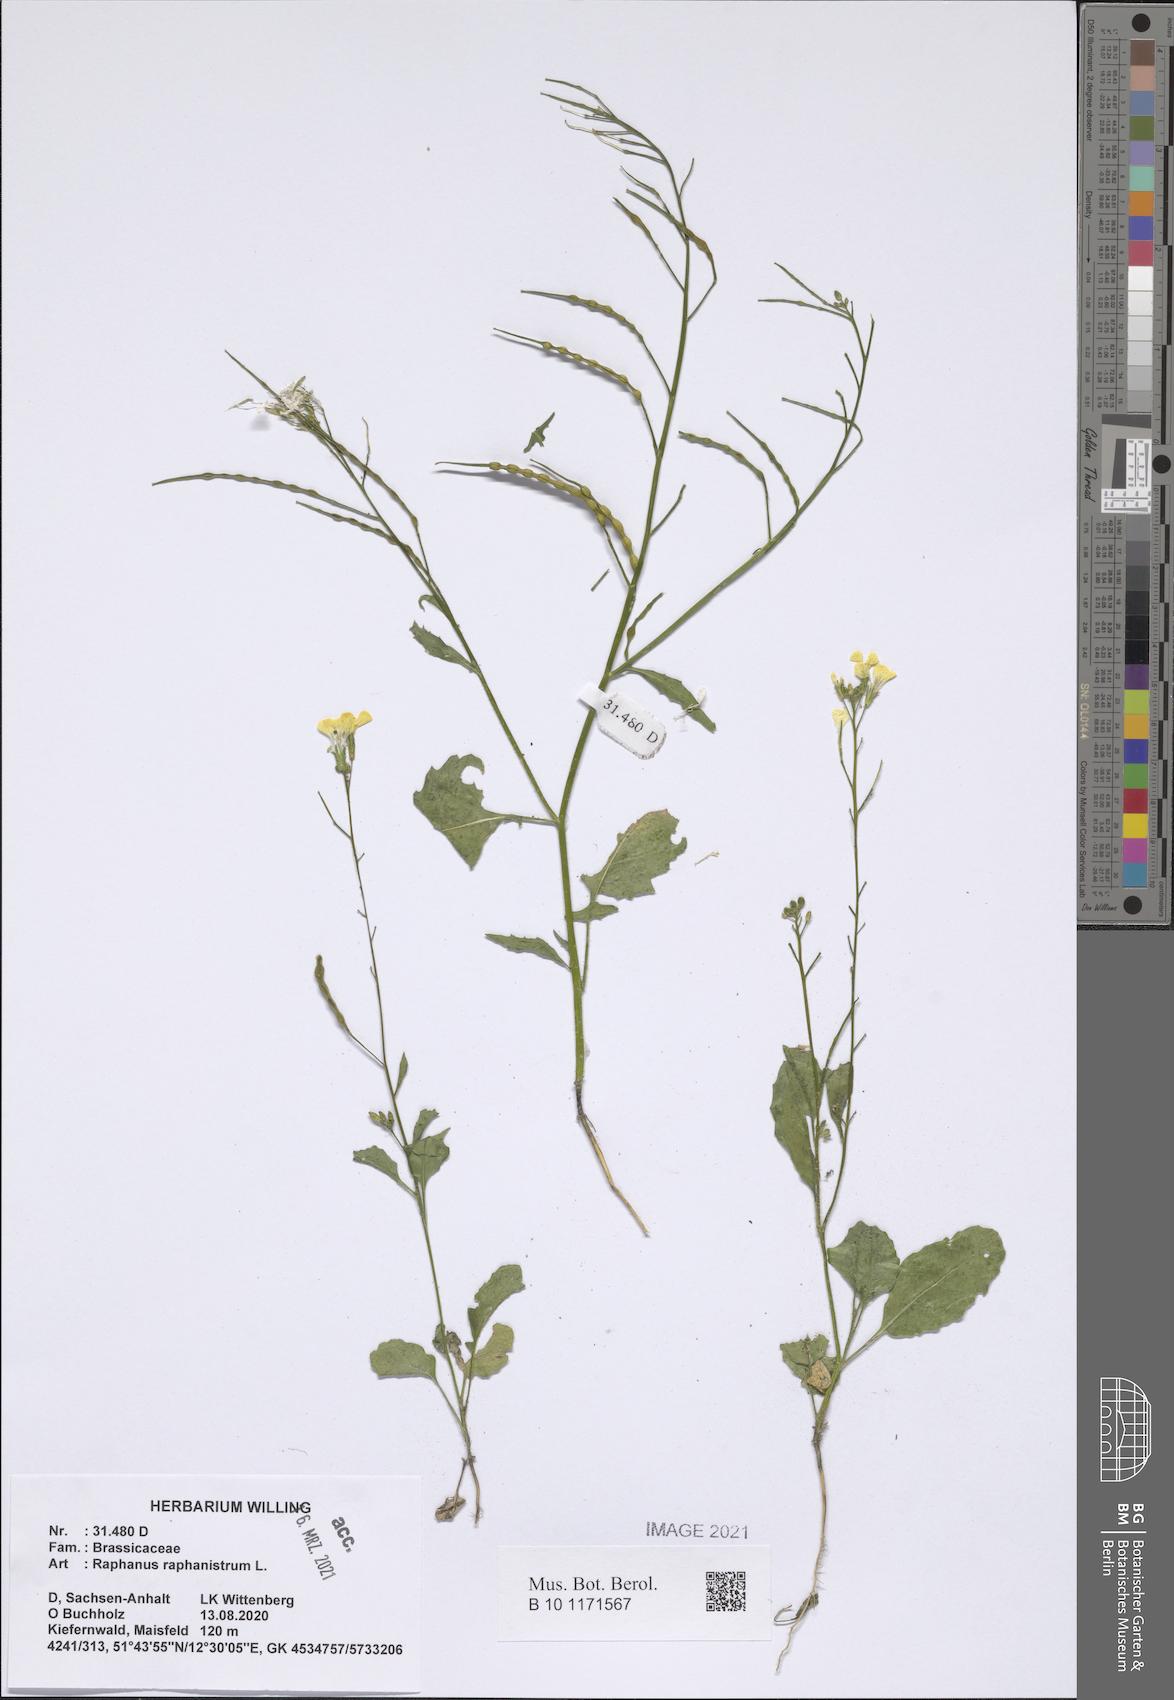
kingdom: Plantae
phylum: Tracheophyta
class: Magnoliopsida
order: Brassicales
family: Brassicaceae
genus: Raphanus
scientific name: Raphanus raphanistrum
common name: Wild radish
